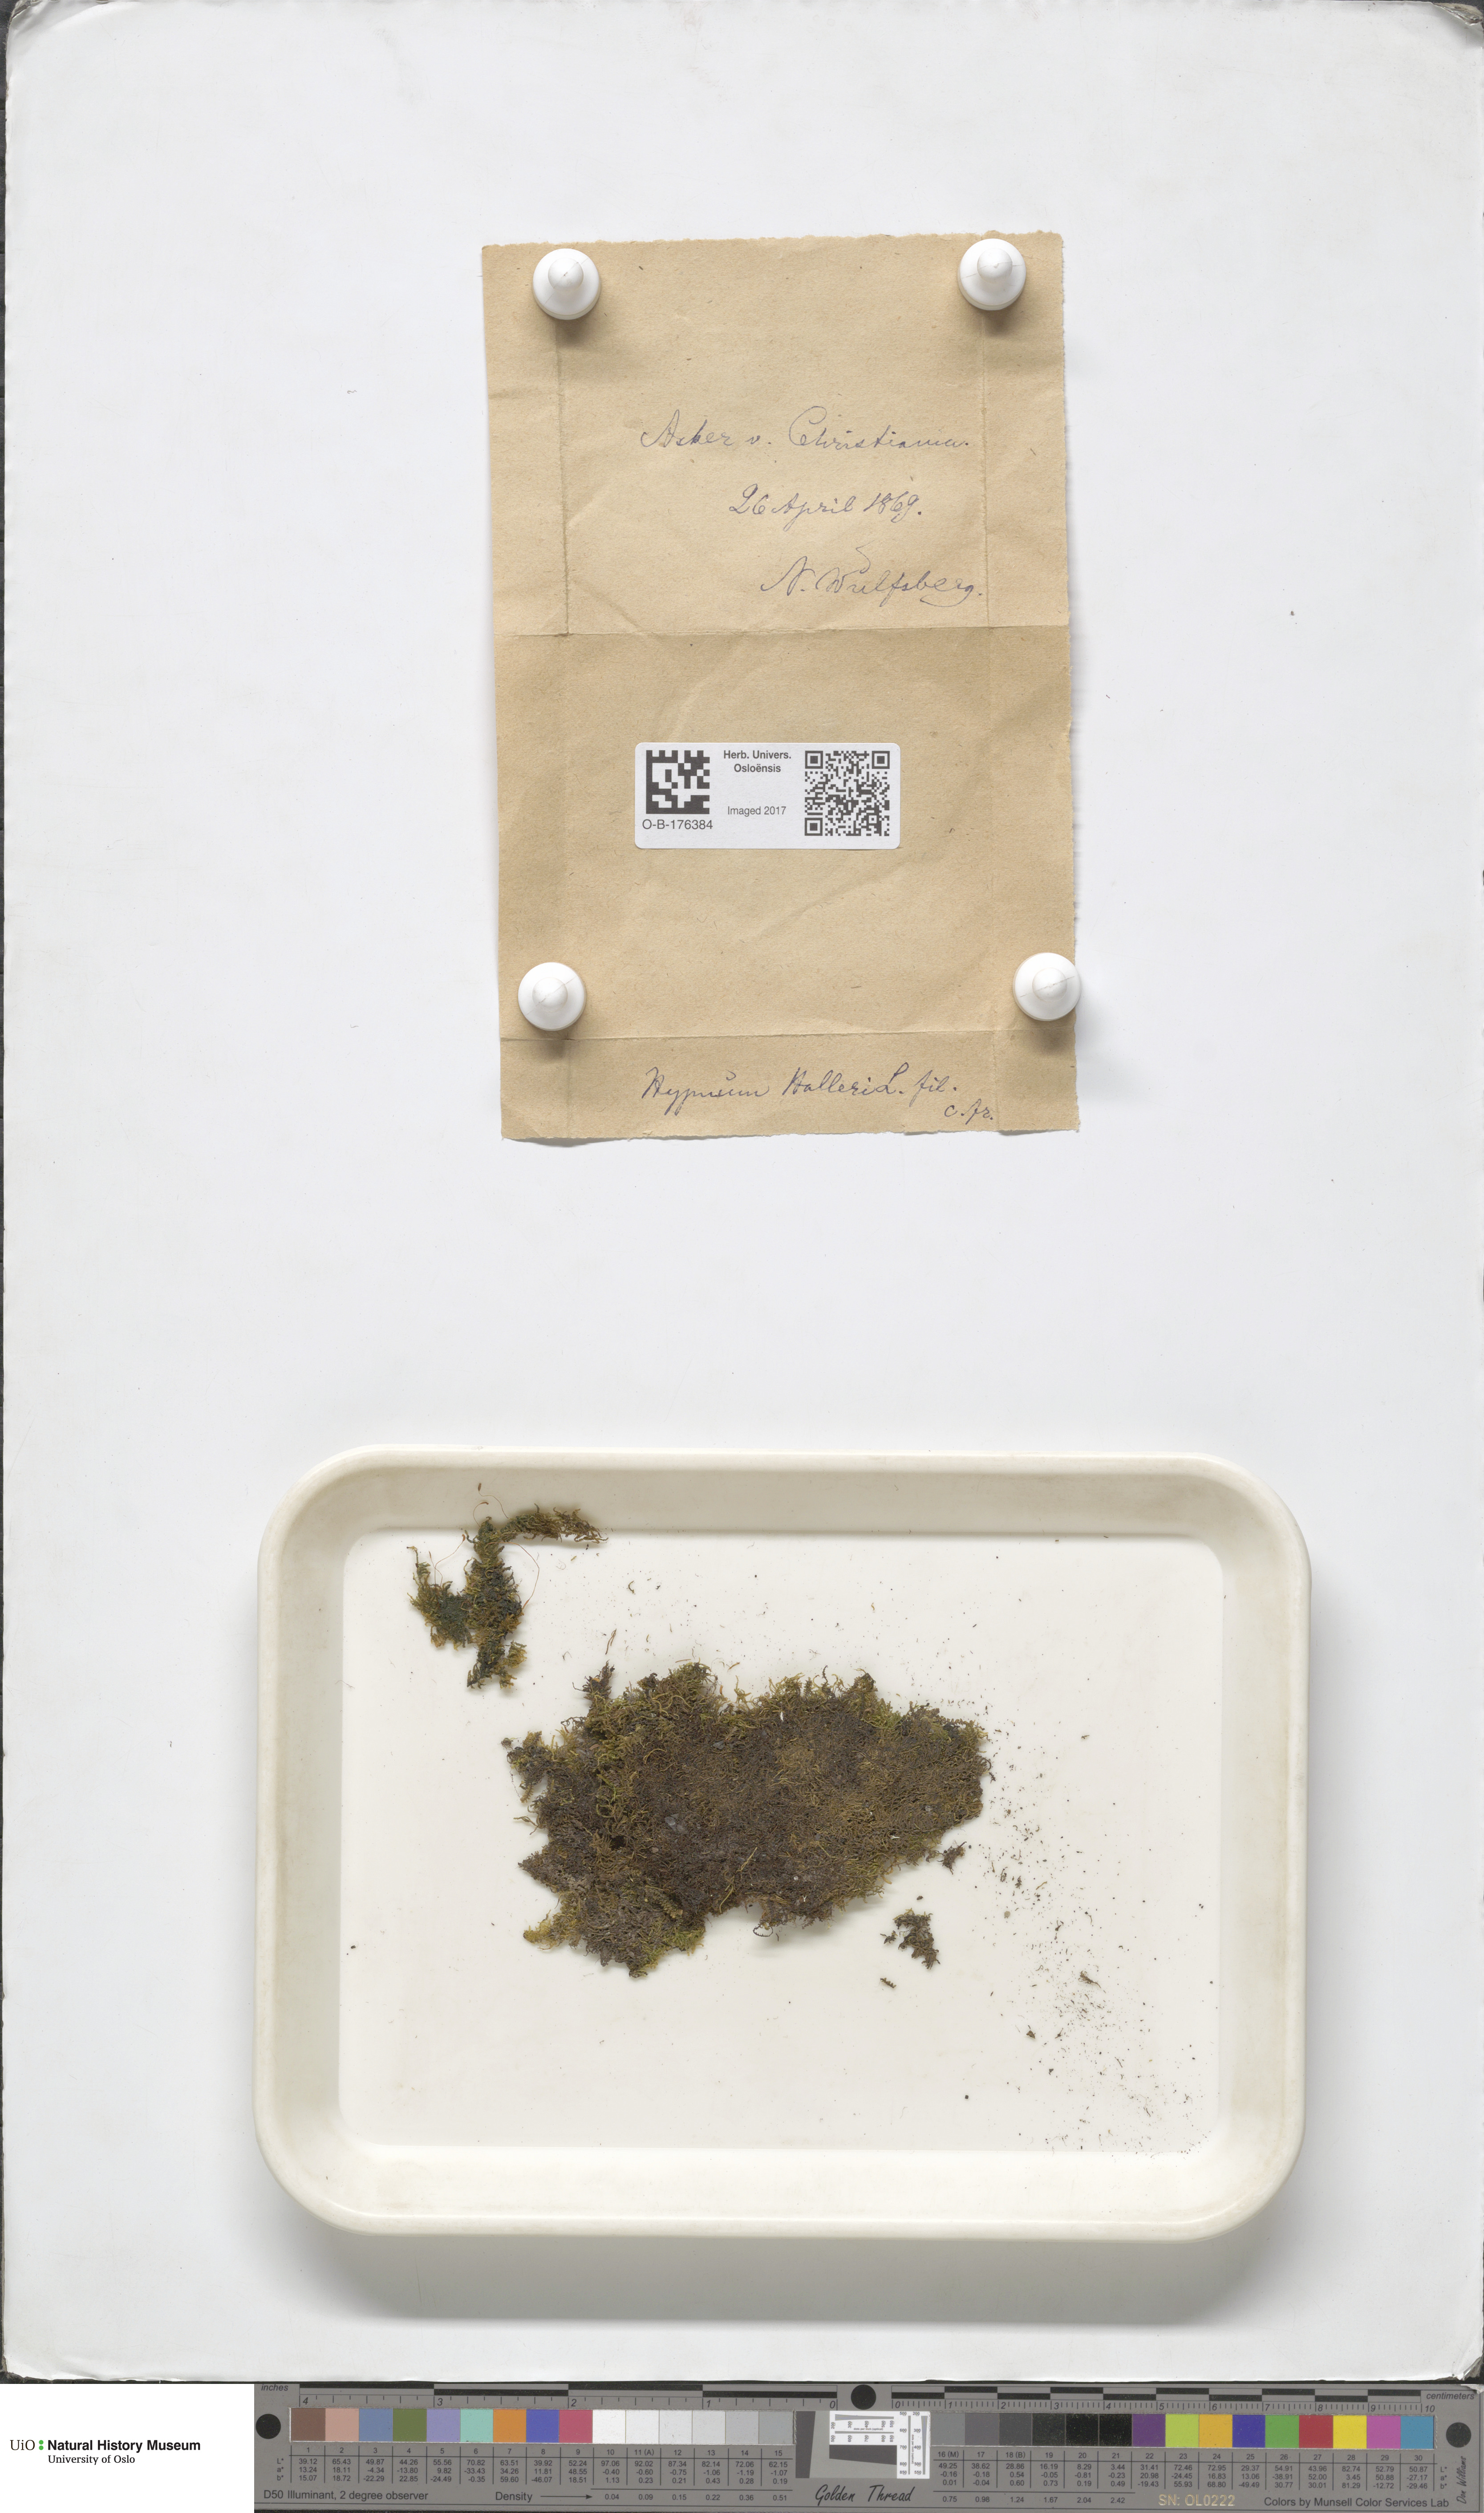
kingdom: Plantae
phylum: Bryophyta
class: Bryopsida
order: Hypnales
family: Amblystegiaceae
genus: Campylophyllum
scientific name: Campylophyllum halleri
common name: Haller's fine wet moss
